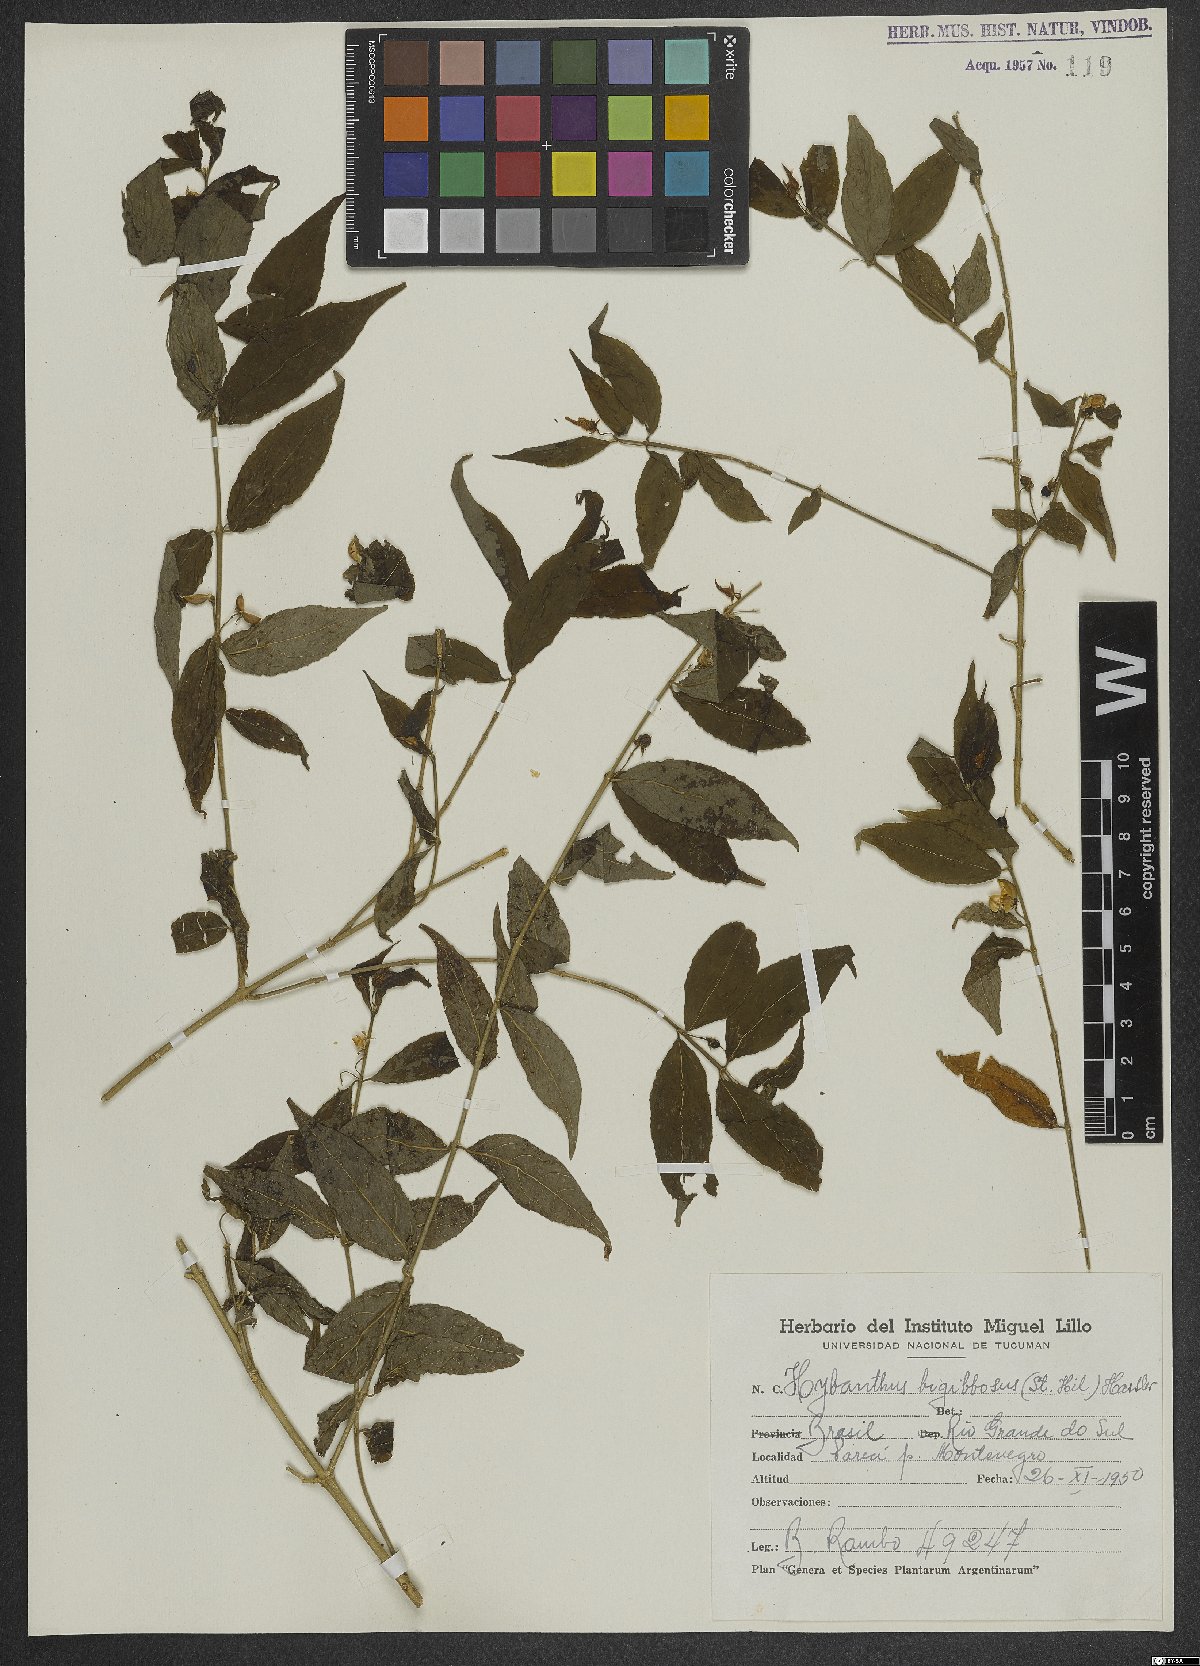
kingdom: Plantae
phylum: Tracheophyta
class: Magnoliopsida
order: Malpighiales
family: Violaceae
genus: Pombalia
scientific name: Pombalia bigibbosa
